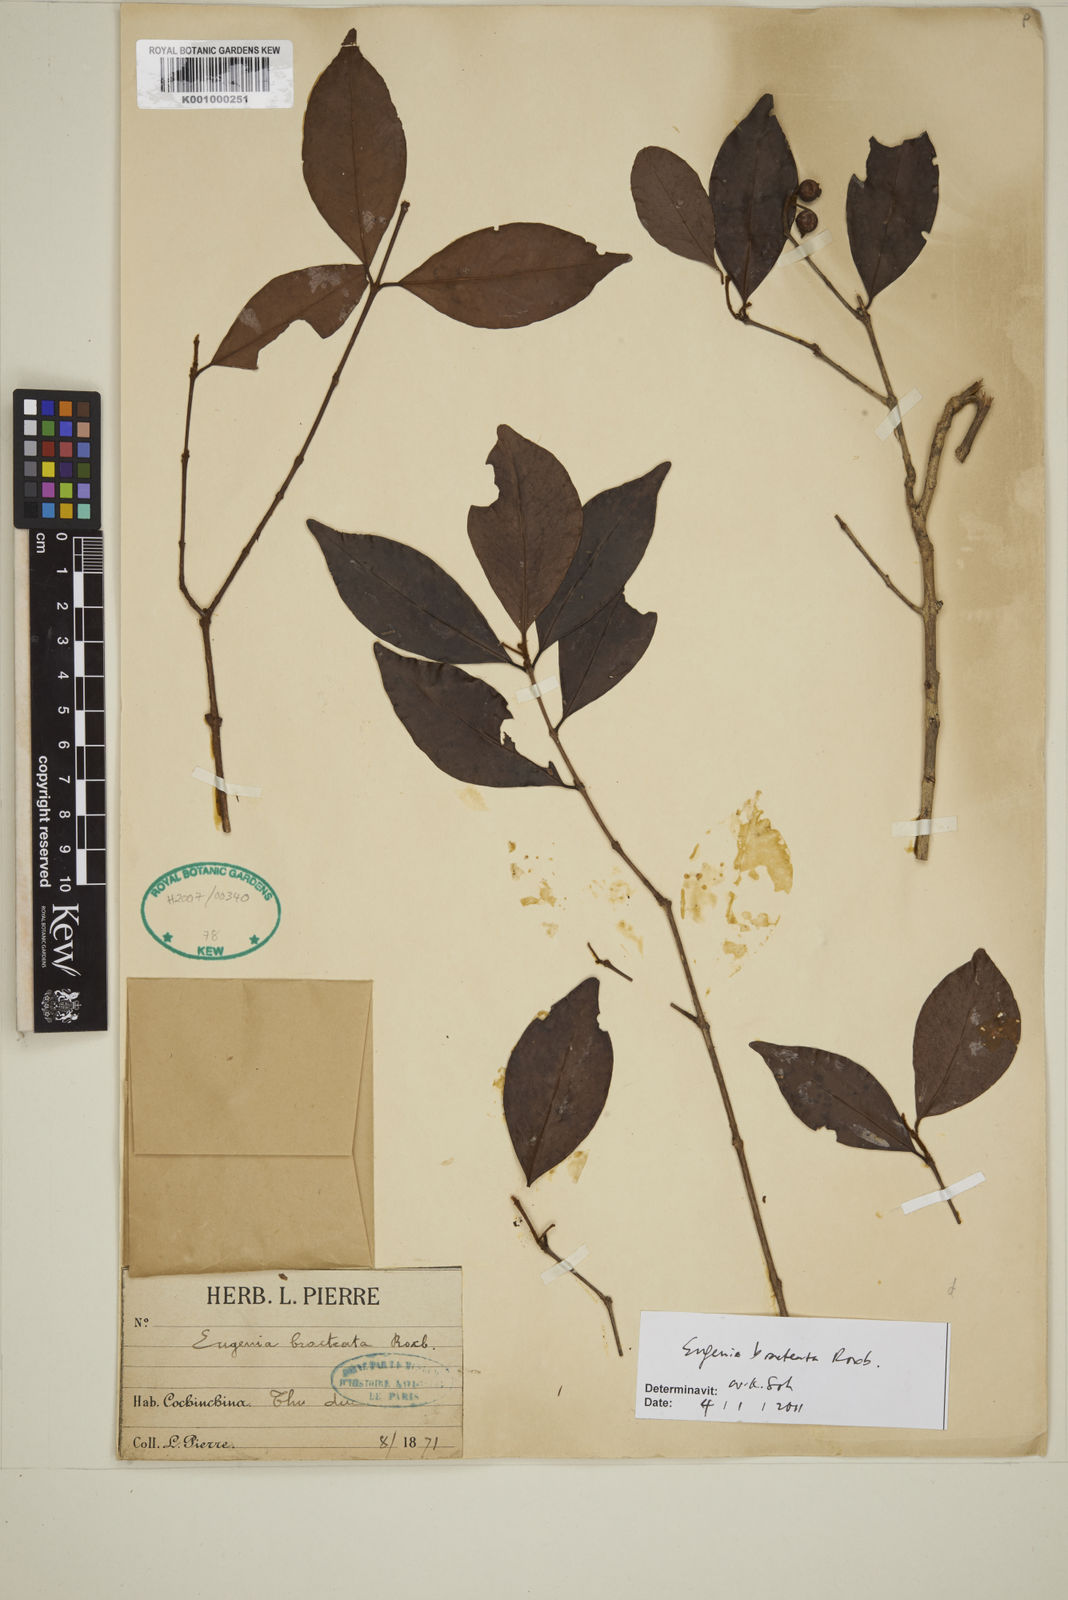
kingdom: Plantae
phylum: Tracheophyta
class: Magnoliopsida
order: Myrtales
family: Myrtaceae
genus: Myrcia
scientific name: Myrcia bracteata
